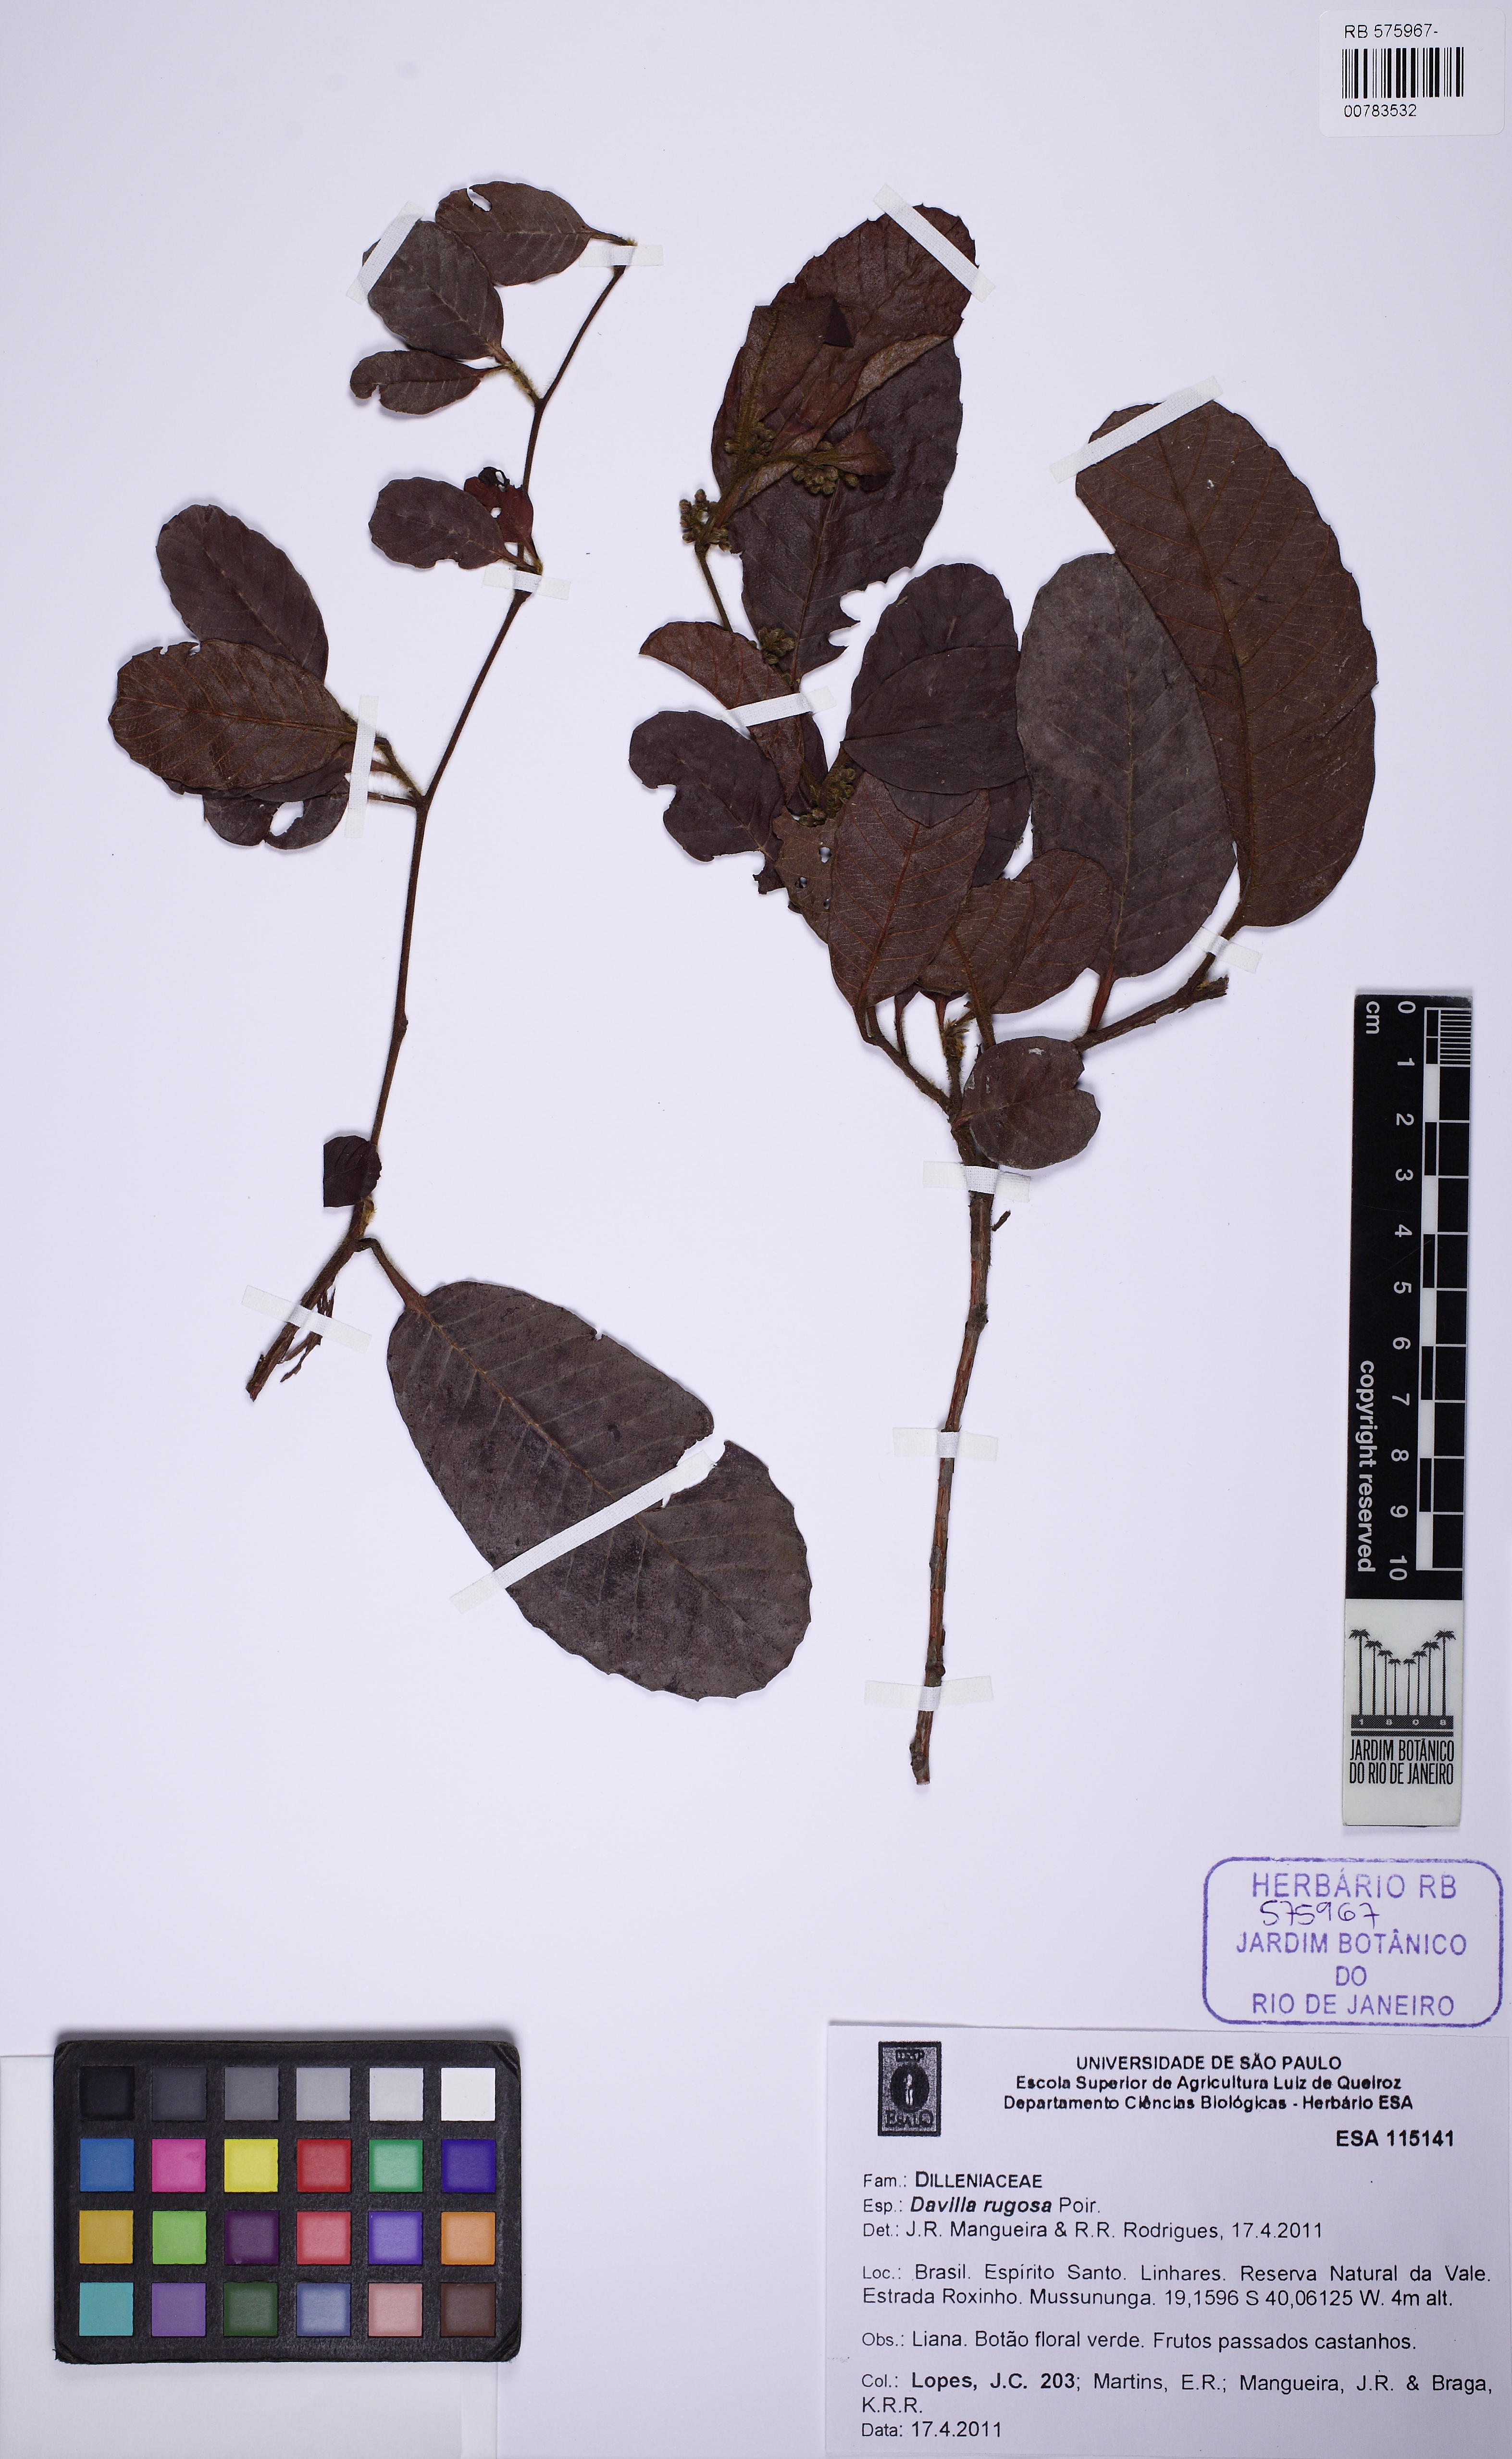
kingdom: Plantae
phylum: Tracheophyta
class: Magnoliopsida
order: Dilleniales
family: Dilleniaceae
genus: Davilla
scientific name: Davilla rugosa
